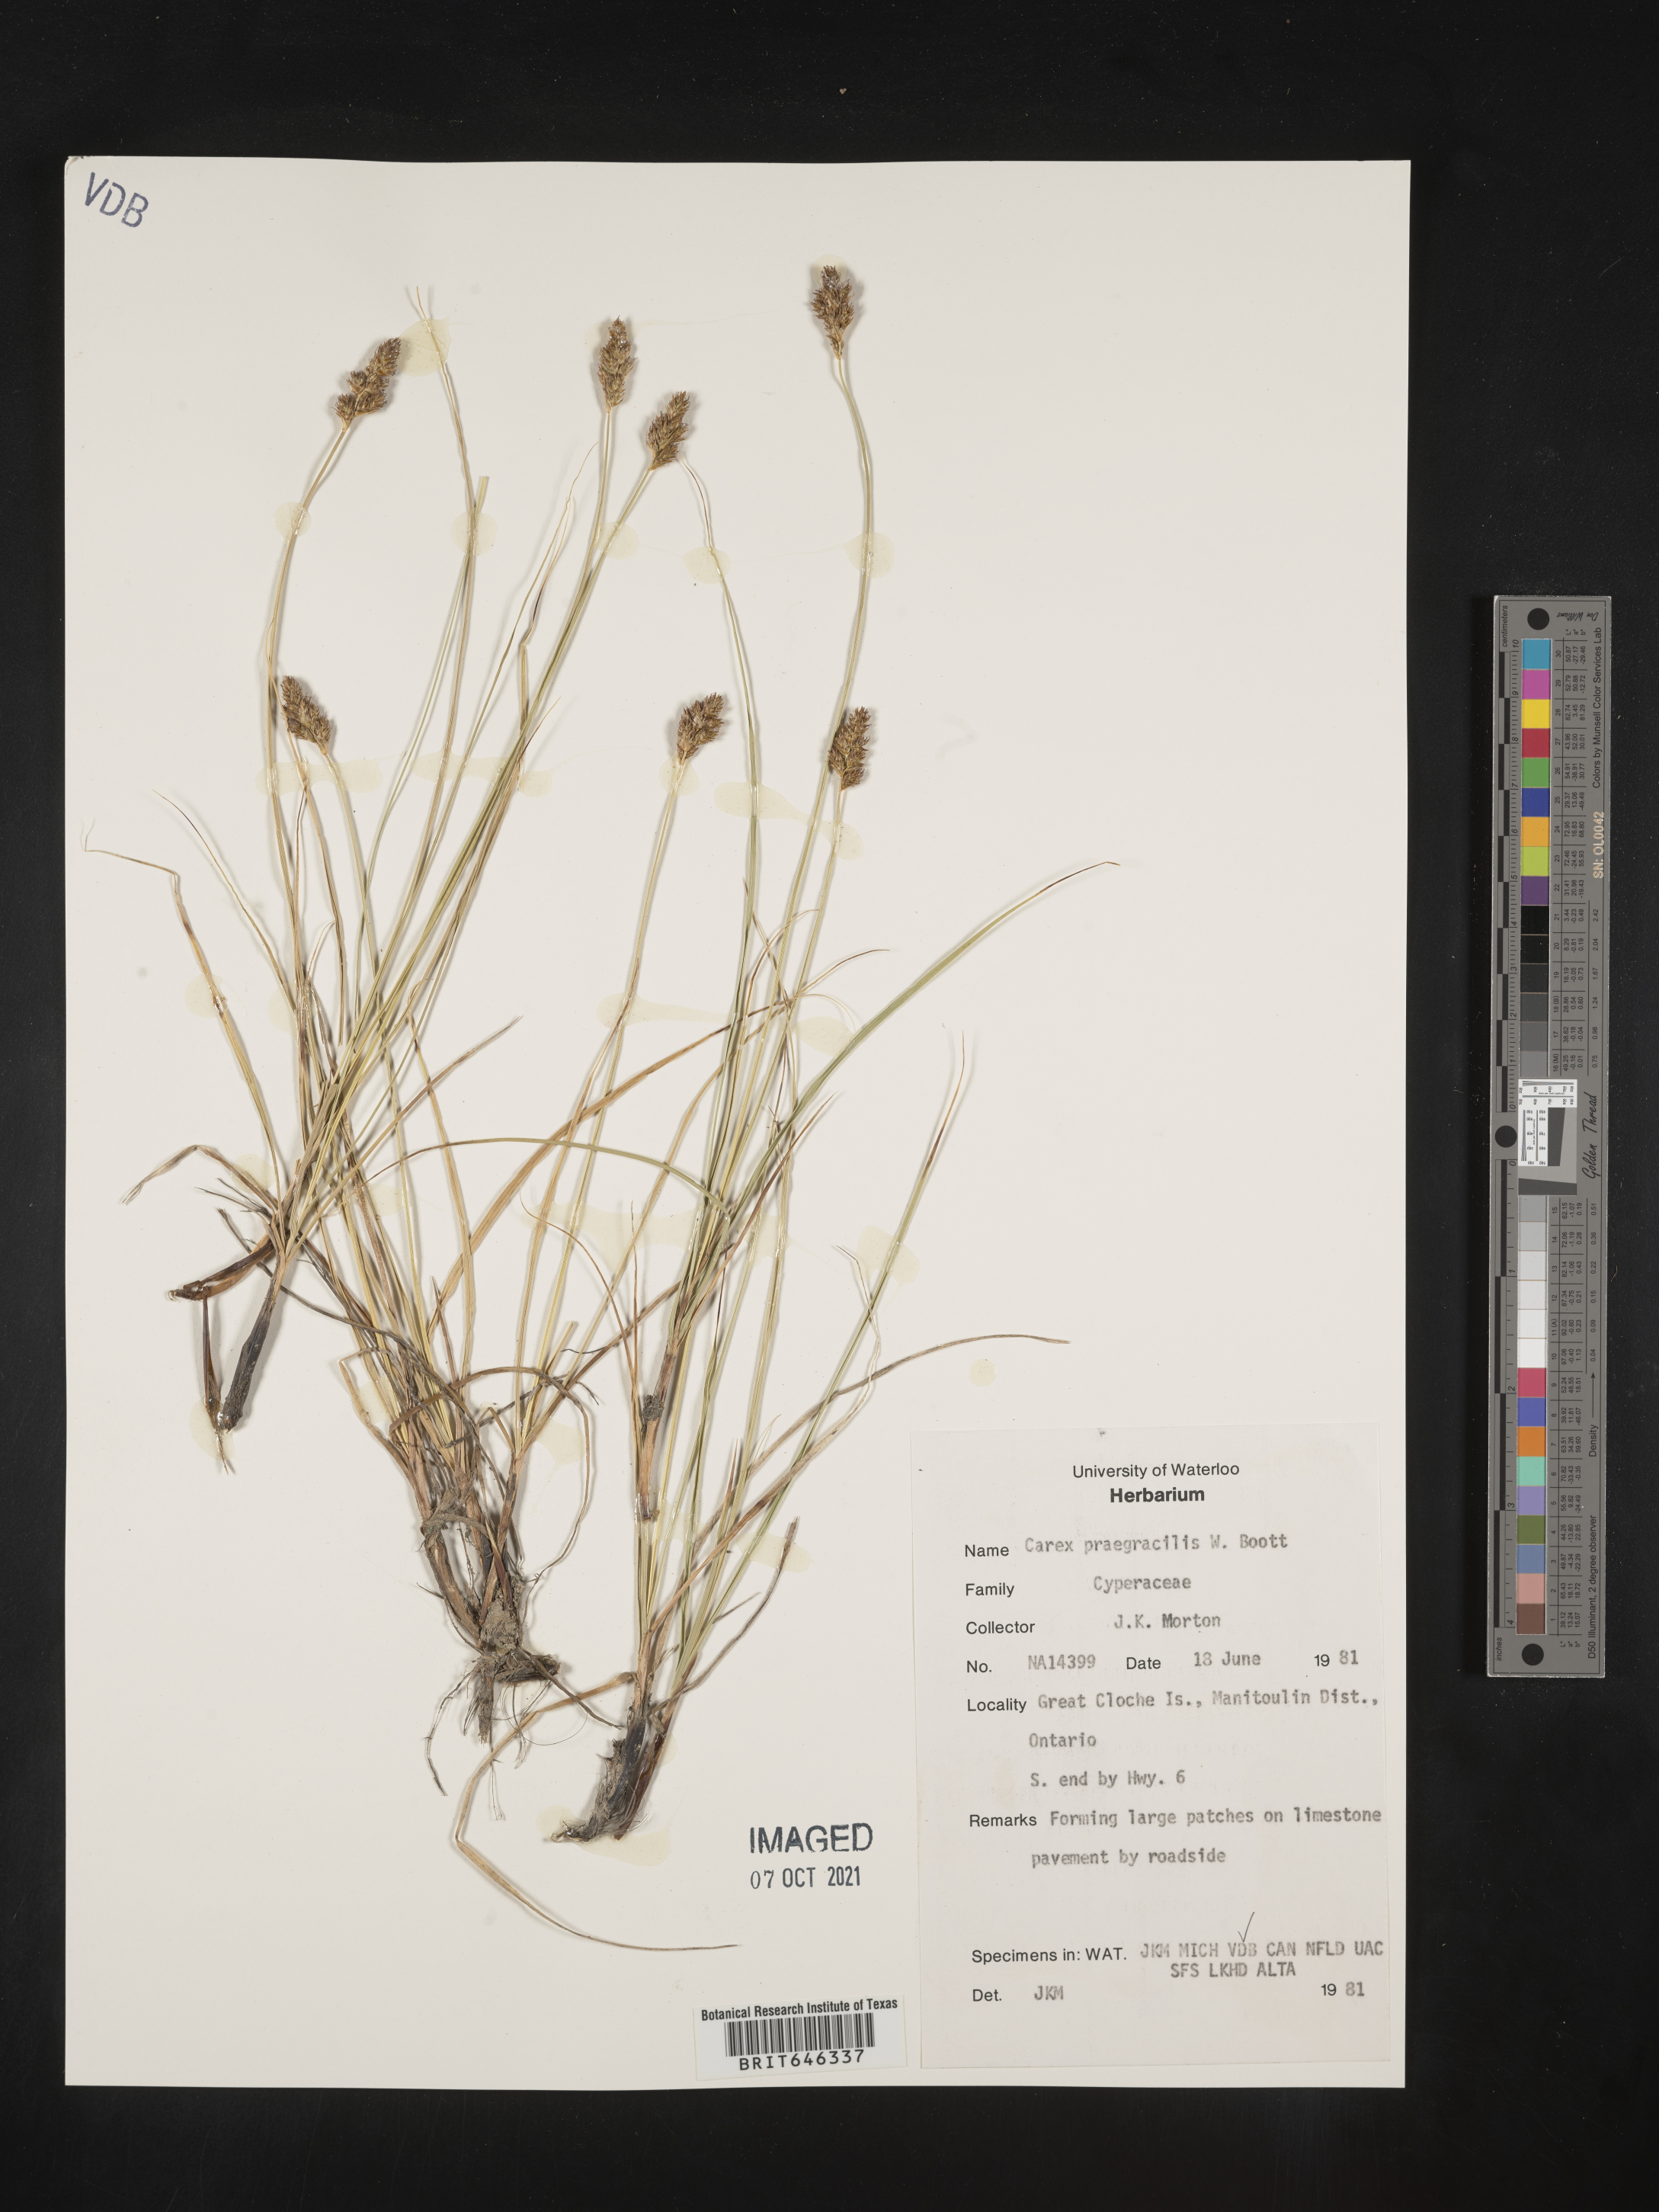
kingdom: Plantae
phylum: Tracheophyta
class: Liliopsida
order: Poales
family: Cyperaceae
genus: Carex
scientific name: Carex praegracilis
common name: Black creeper sedge
